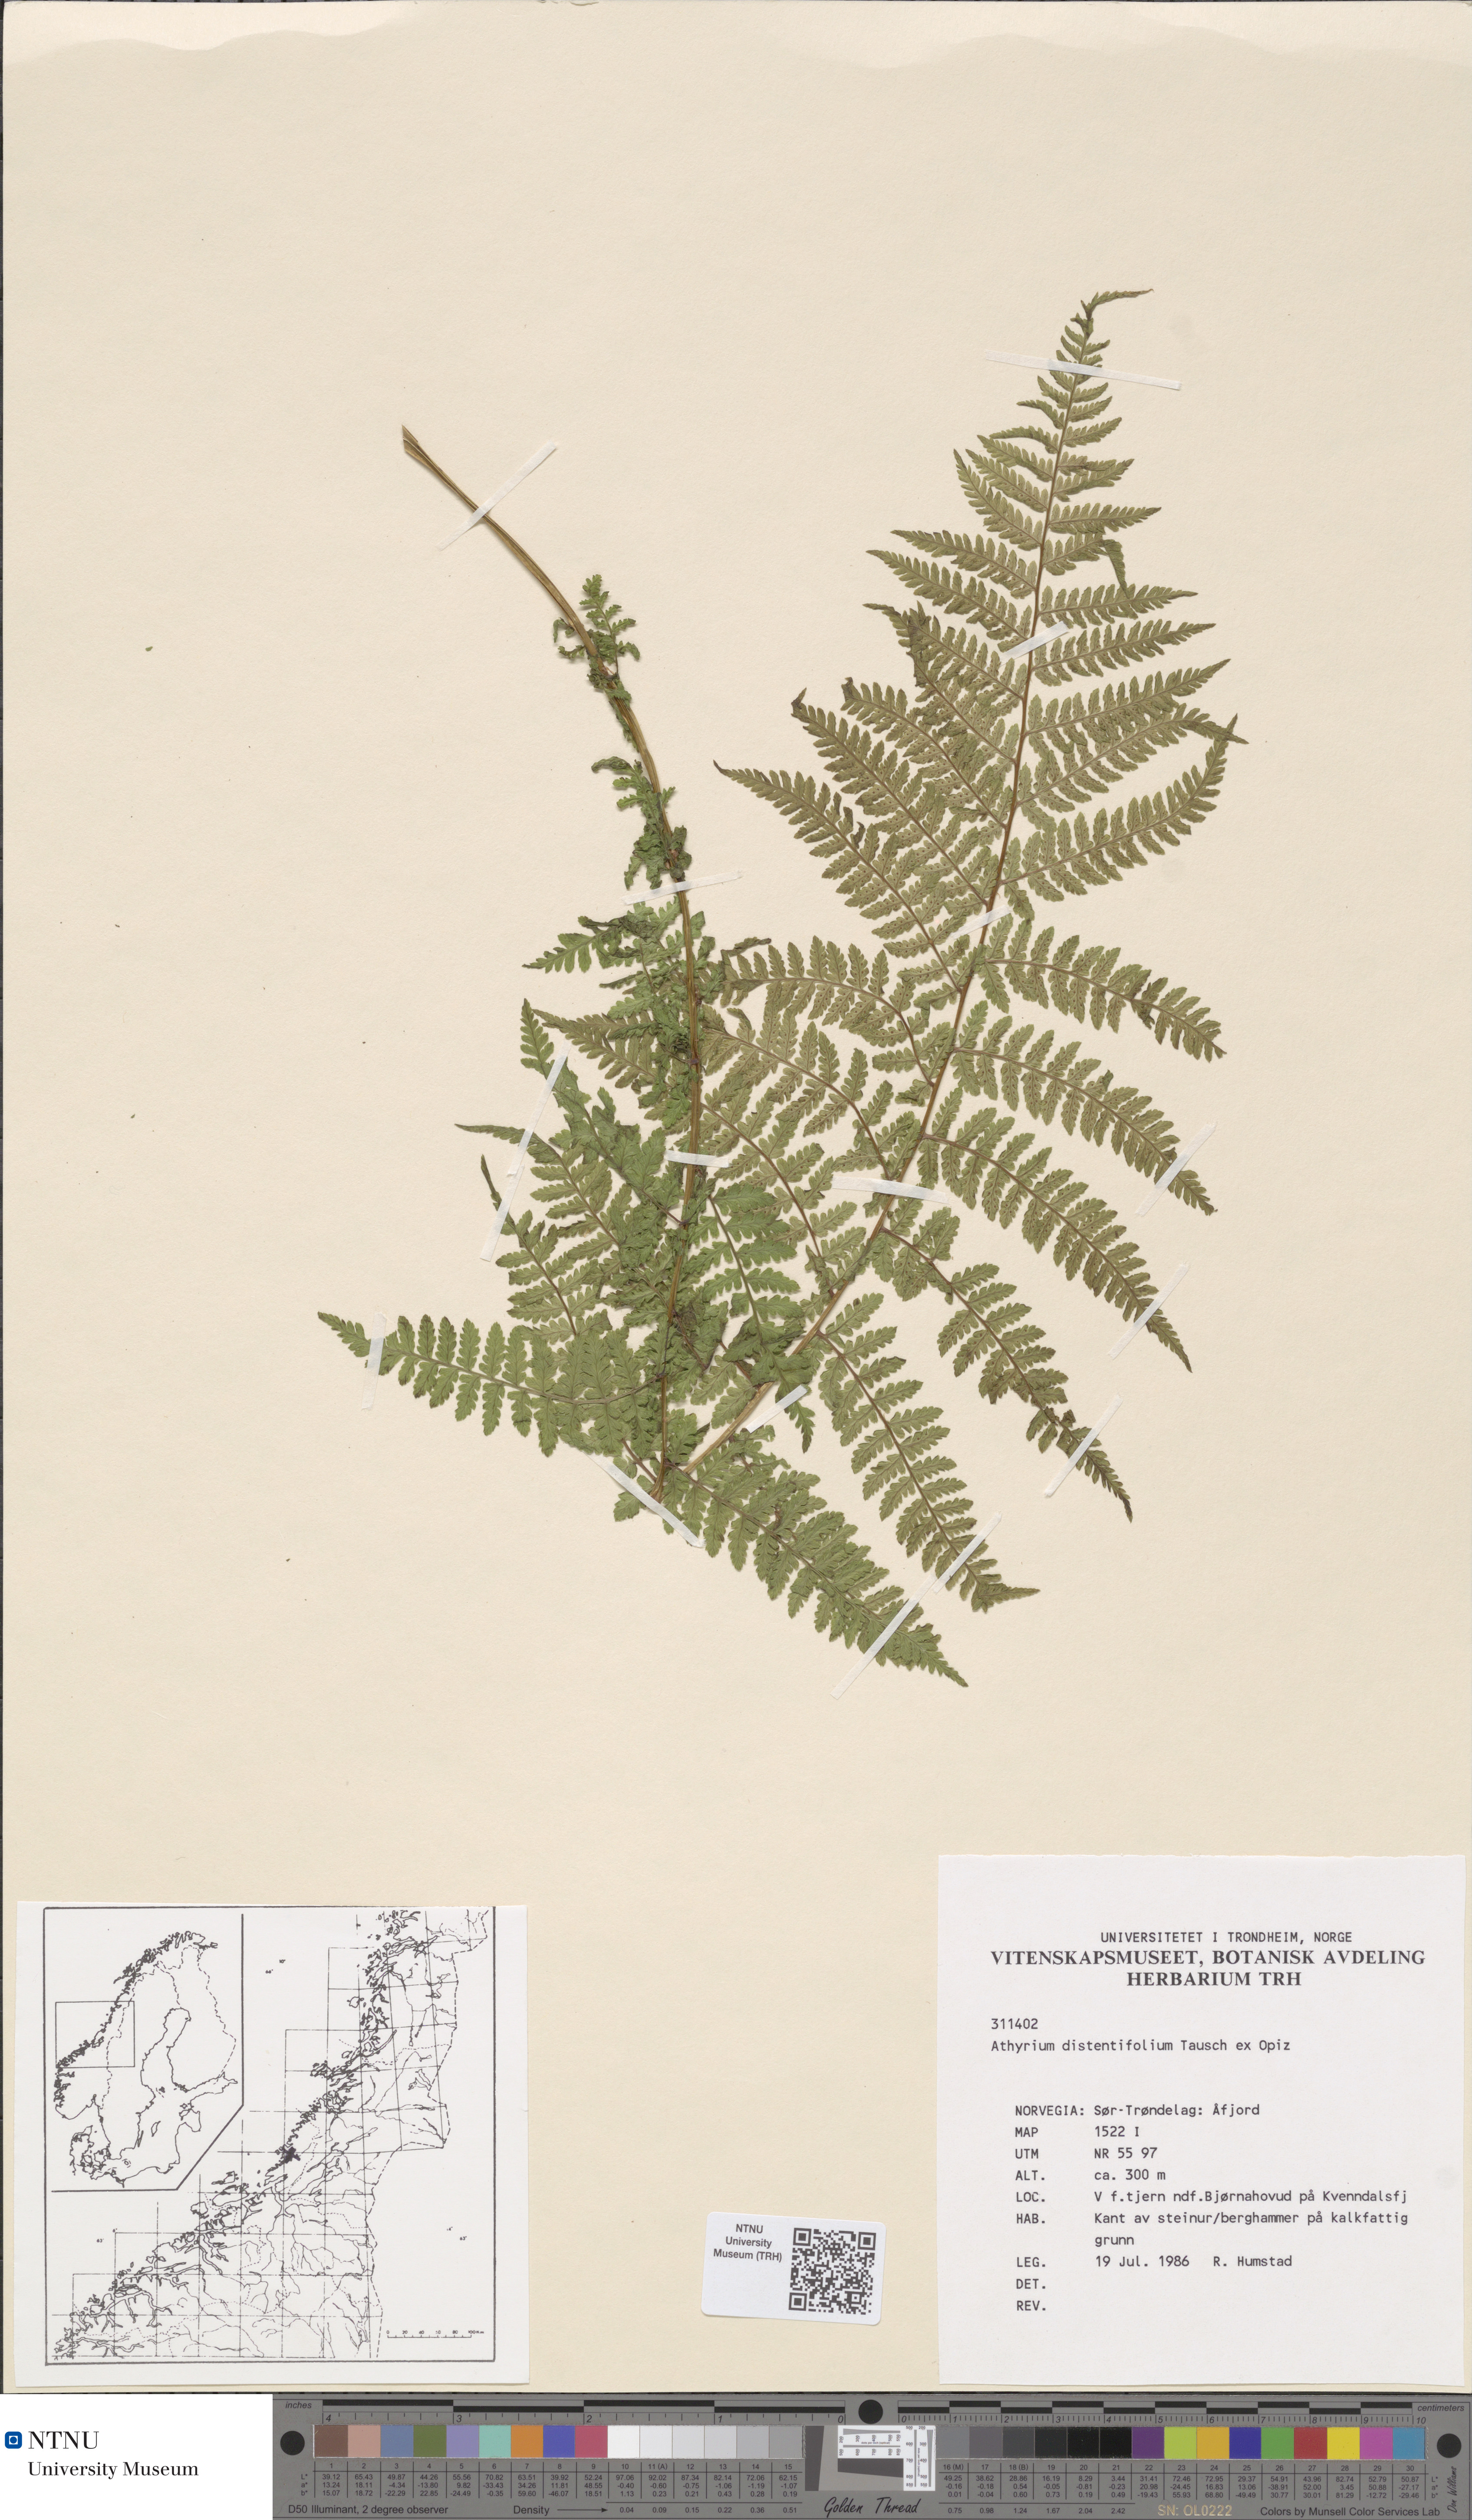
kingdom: Plantae
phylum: Tracheophyta
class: Polypodiopsida
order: Polypodiales
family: Athyriaceae
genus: Pseudathyrium
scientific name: Pseudathyrium alpestre
